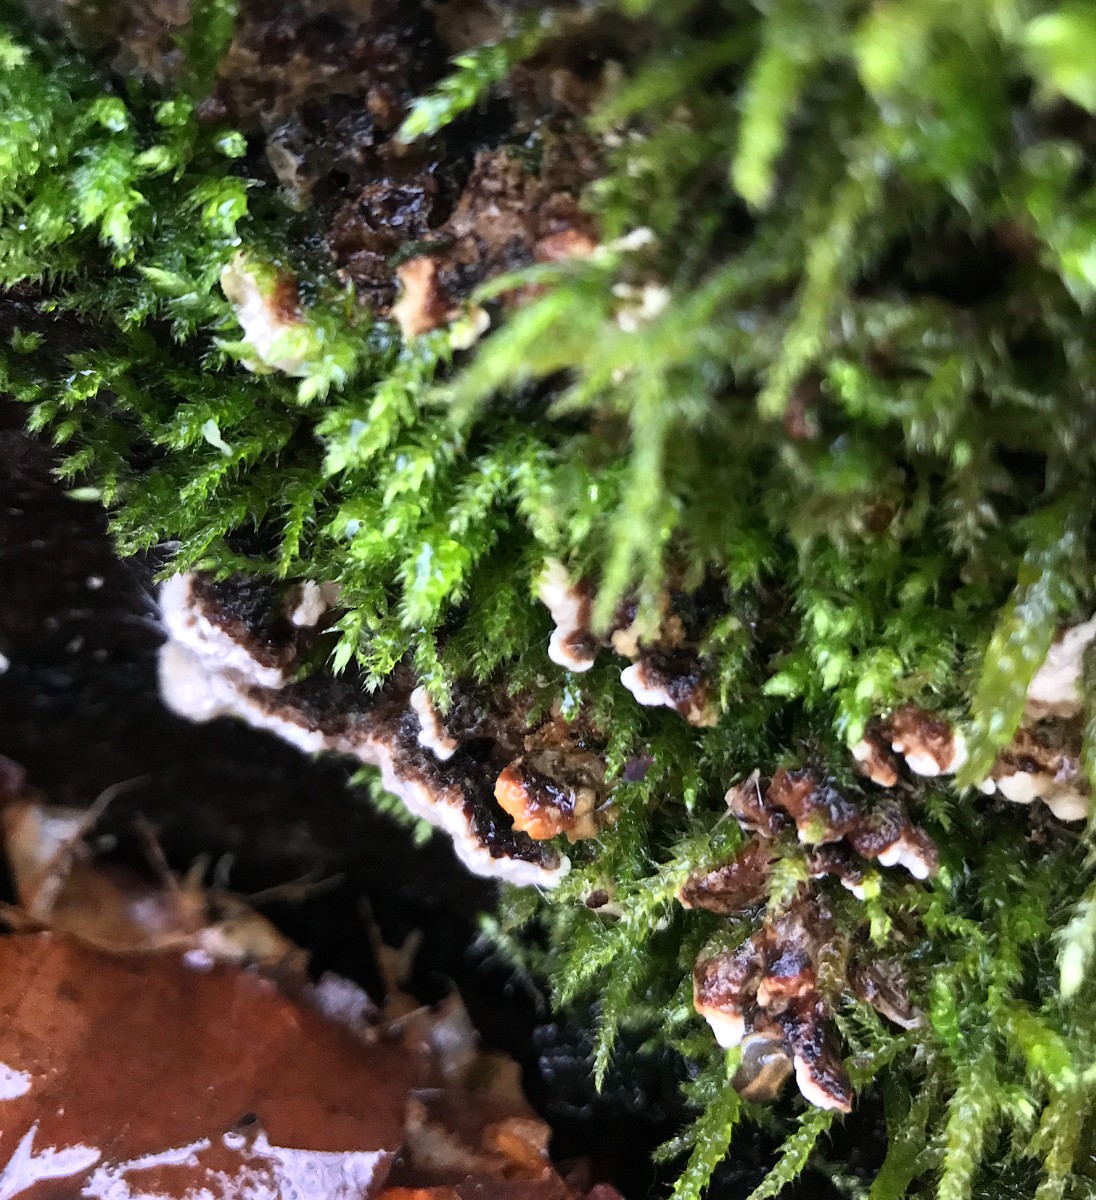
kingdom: Fungi
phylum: Basidiomycota
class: Agaricomycetes
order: Russulales
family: Bondarzewiaceae
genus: Heterobasidion
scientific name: Heterobasidion annosum
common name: almindelig rodfordærver
